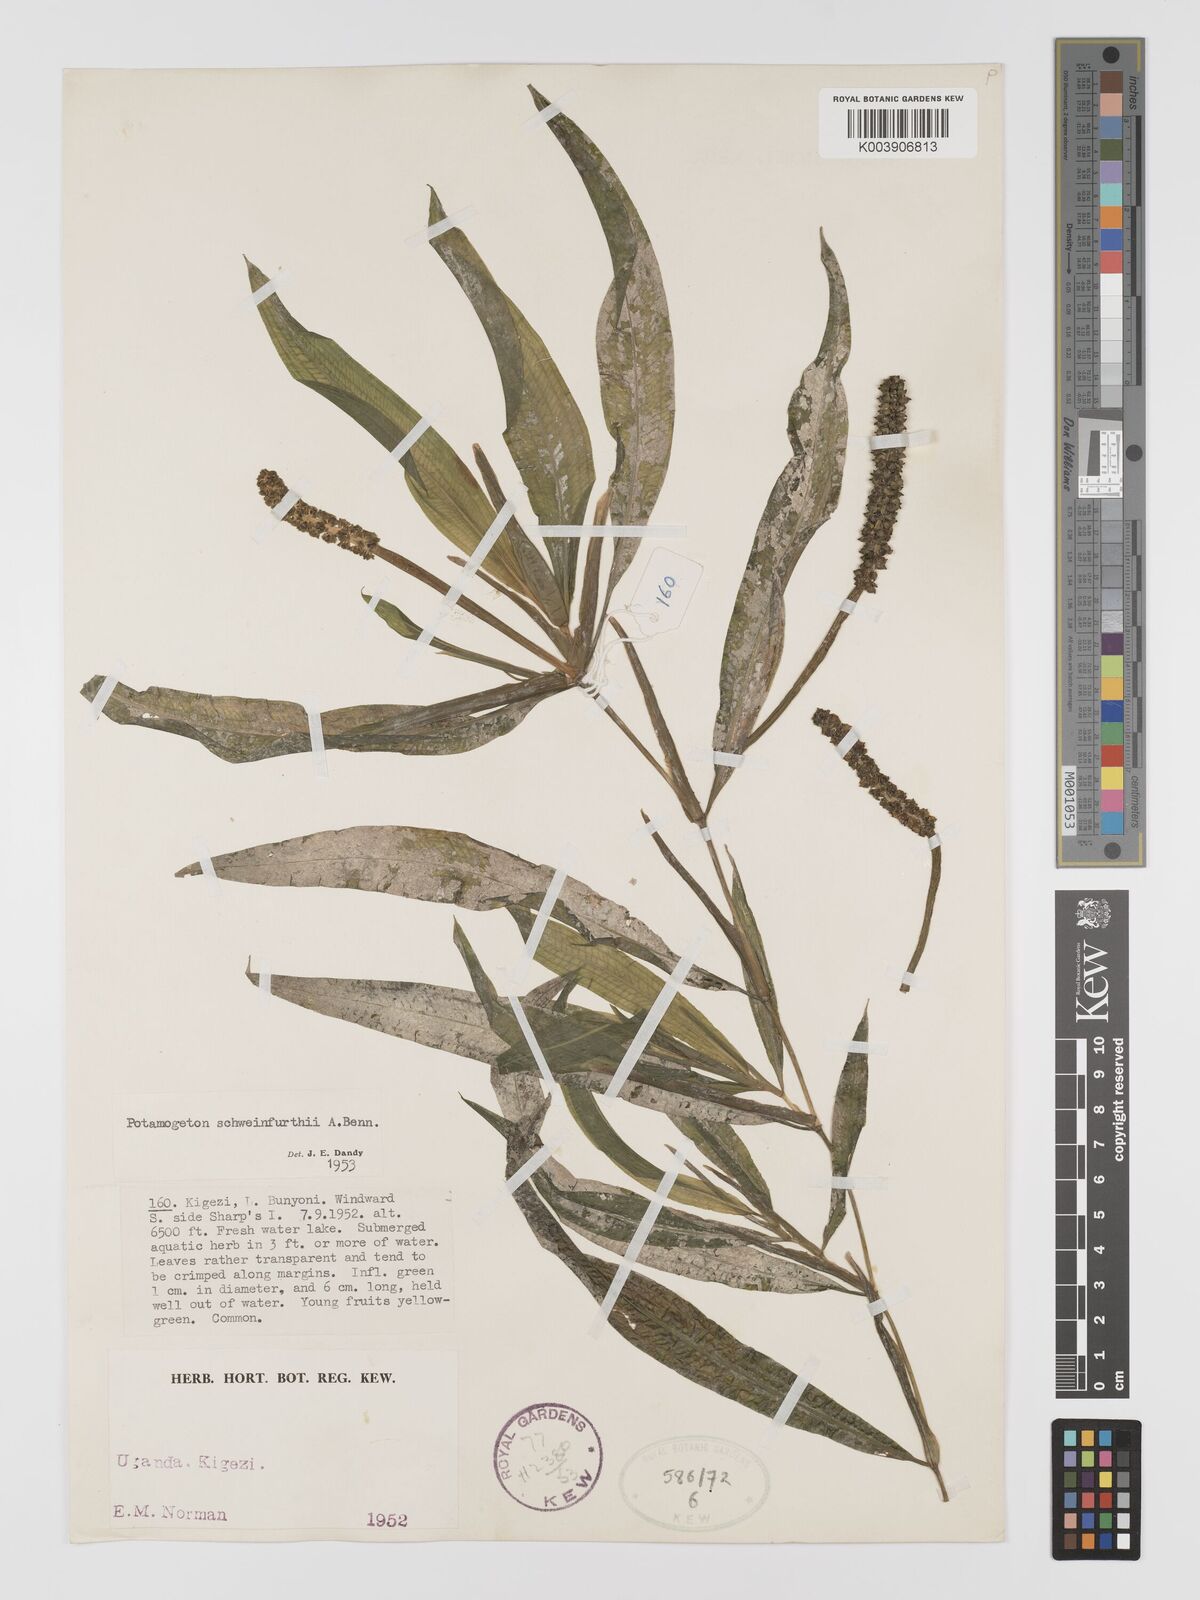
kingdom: Plantae
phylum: Tracheophyta
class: Liliopsida
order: Alismatales
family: Potamogetonaceae
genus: Potamogeton
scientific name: Potamogeton schweinfurthii
